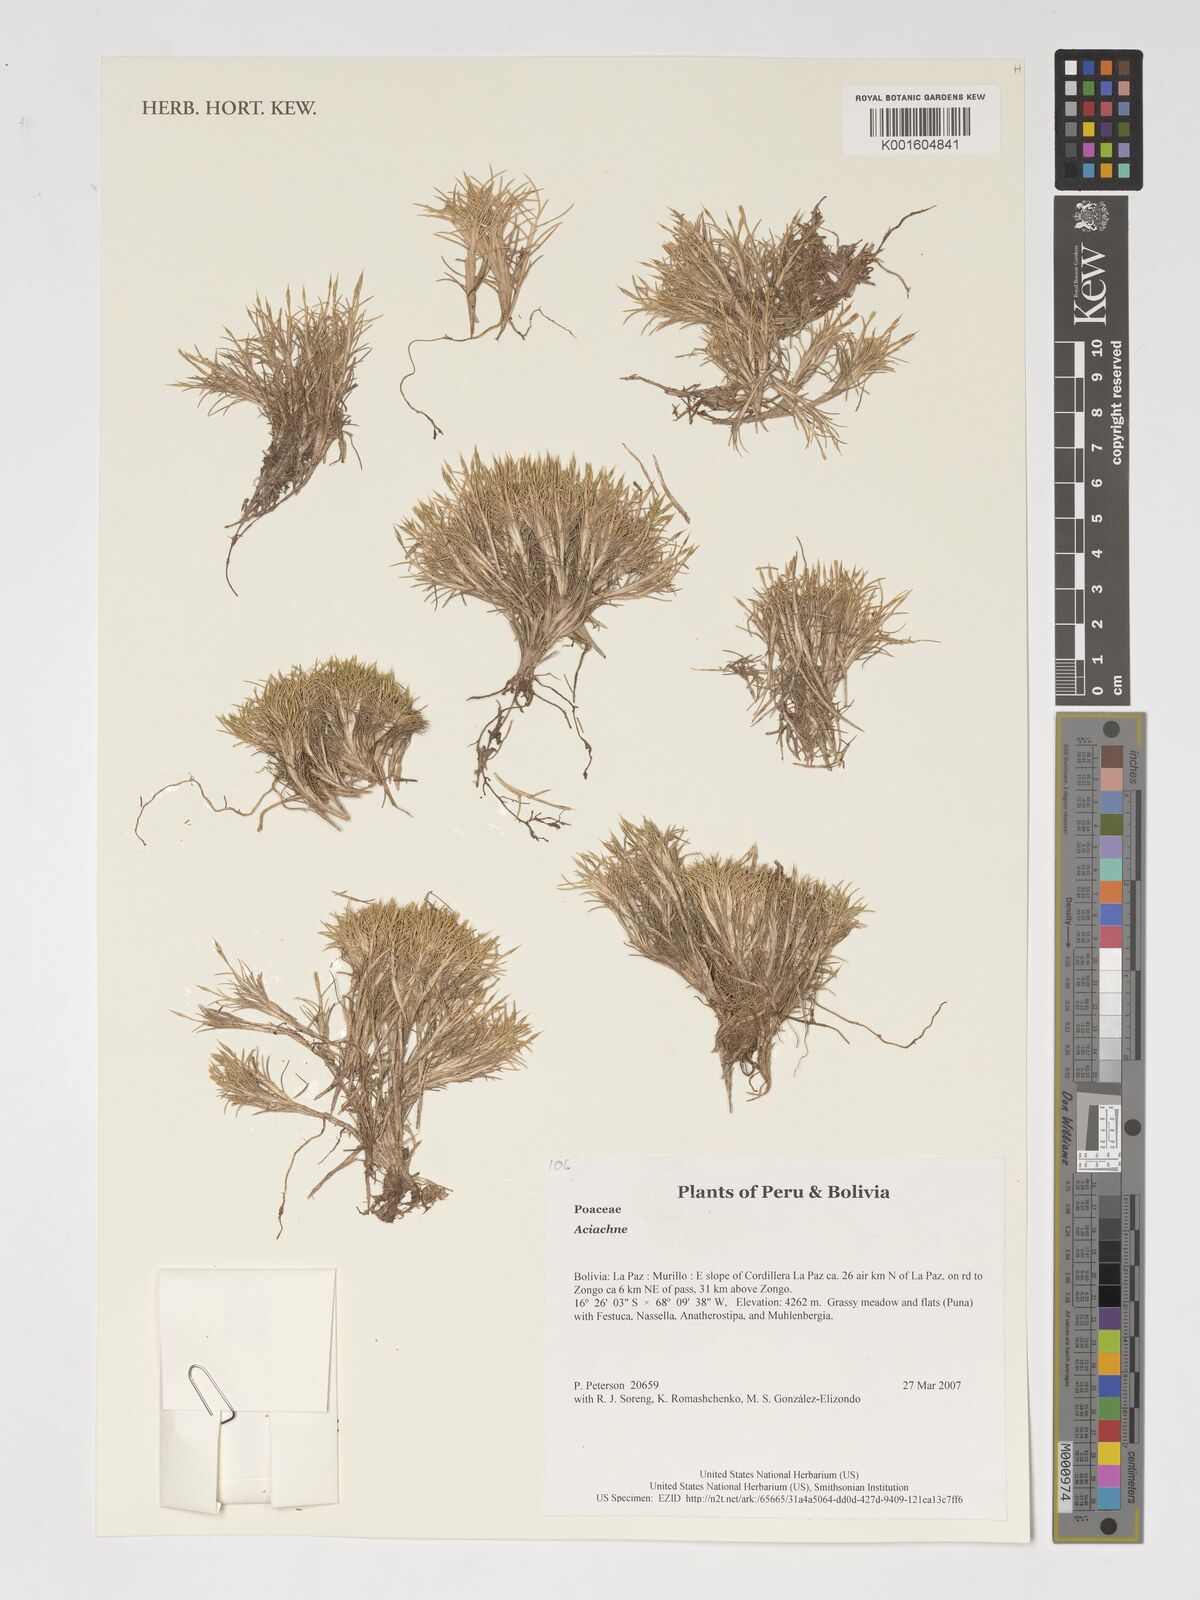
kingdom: Plantae
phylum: Tracheophyta
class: Liliopsida
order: Poales
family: Poaceae
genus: Aciachne
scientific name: Aciachne
